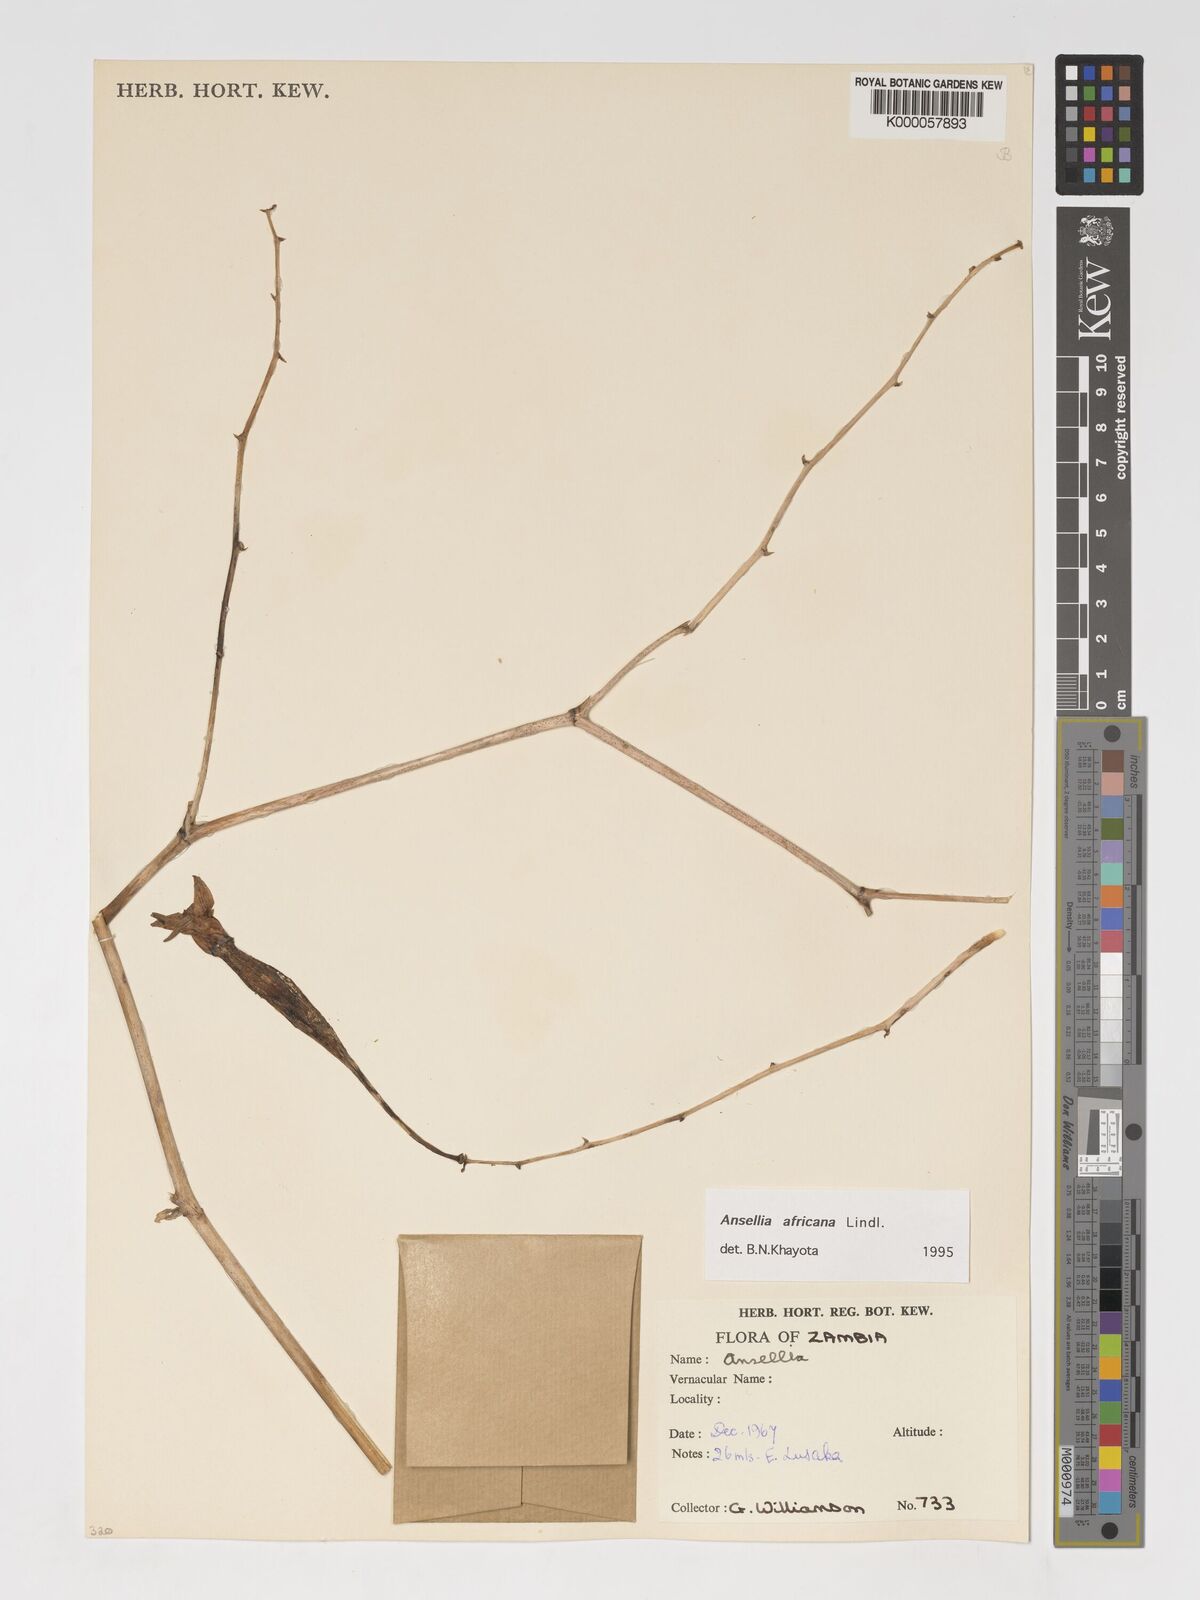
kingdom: Plantae
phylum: Tracheophyta
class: Liliopsida
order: Asparagales
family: Orchidaceae
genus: Ansellia
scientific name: Ansellia africana
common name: African ansellia
